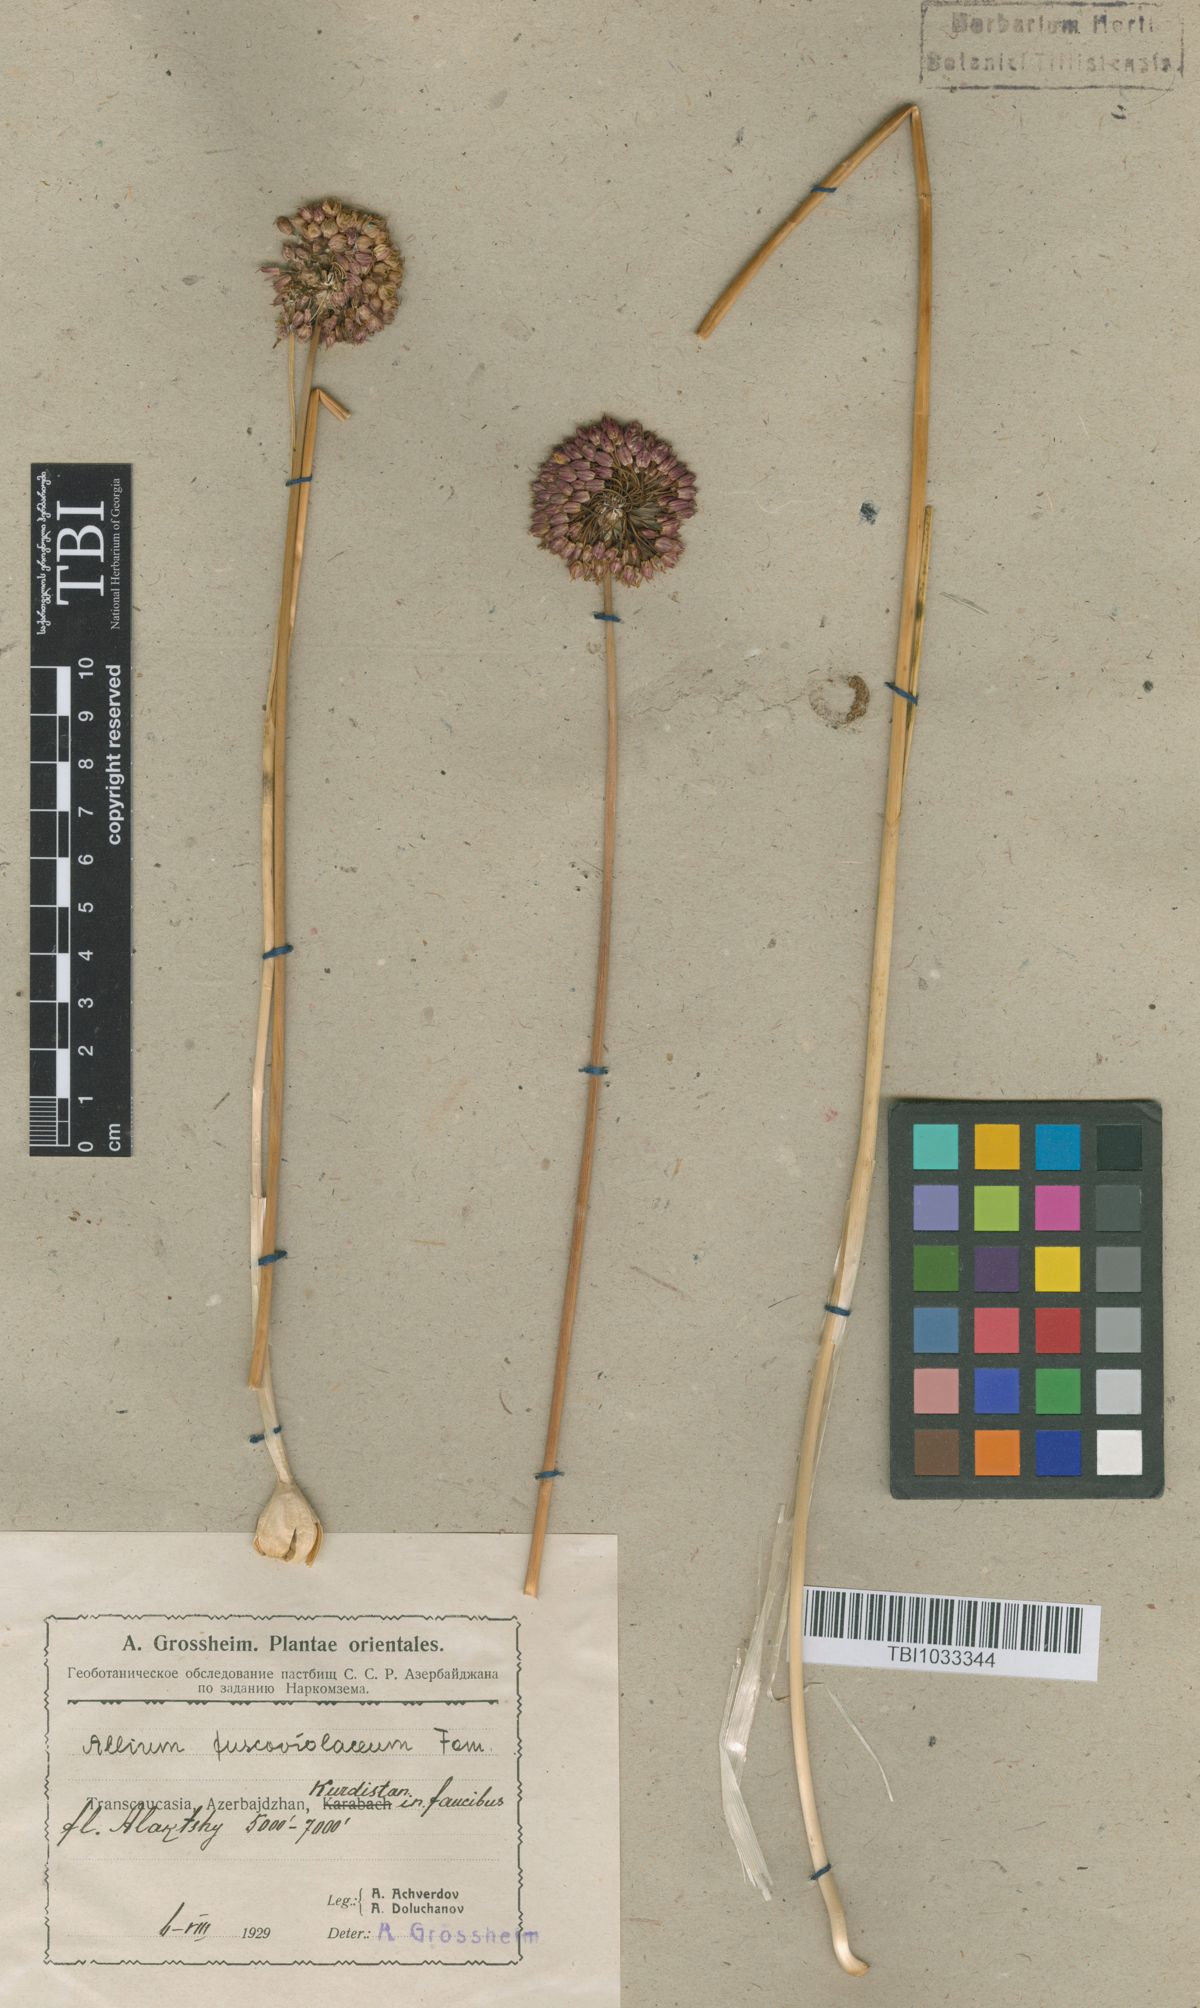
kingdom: Plantae
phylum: Tracheophyta
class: Liliopsida
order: Asparagales
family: Amaryllidaceae
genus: Allium
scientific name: Allium fuscoviolaceum
